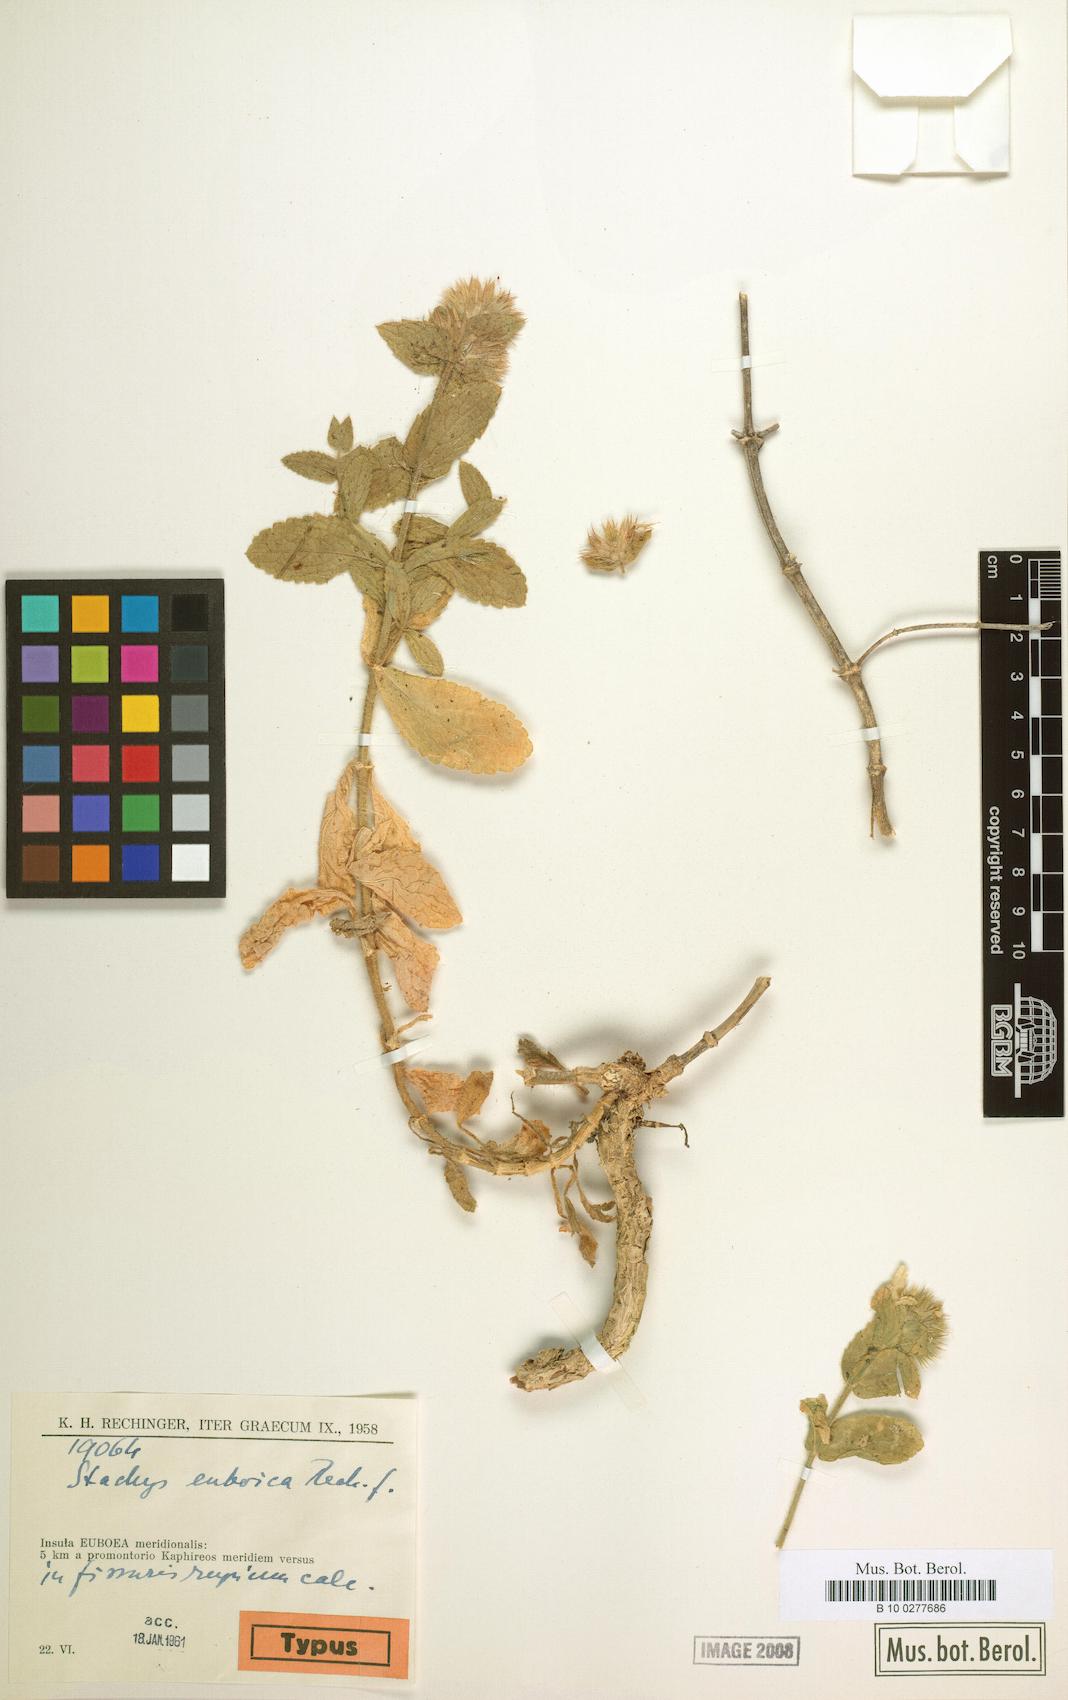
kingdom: Plantae
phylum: Tracheophyta
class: Magnoliopsida
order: Lamiales
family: Lamiaceae
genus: Stachys
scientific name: Stachys euboica
